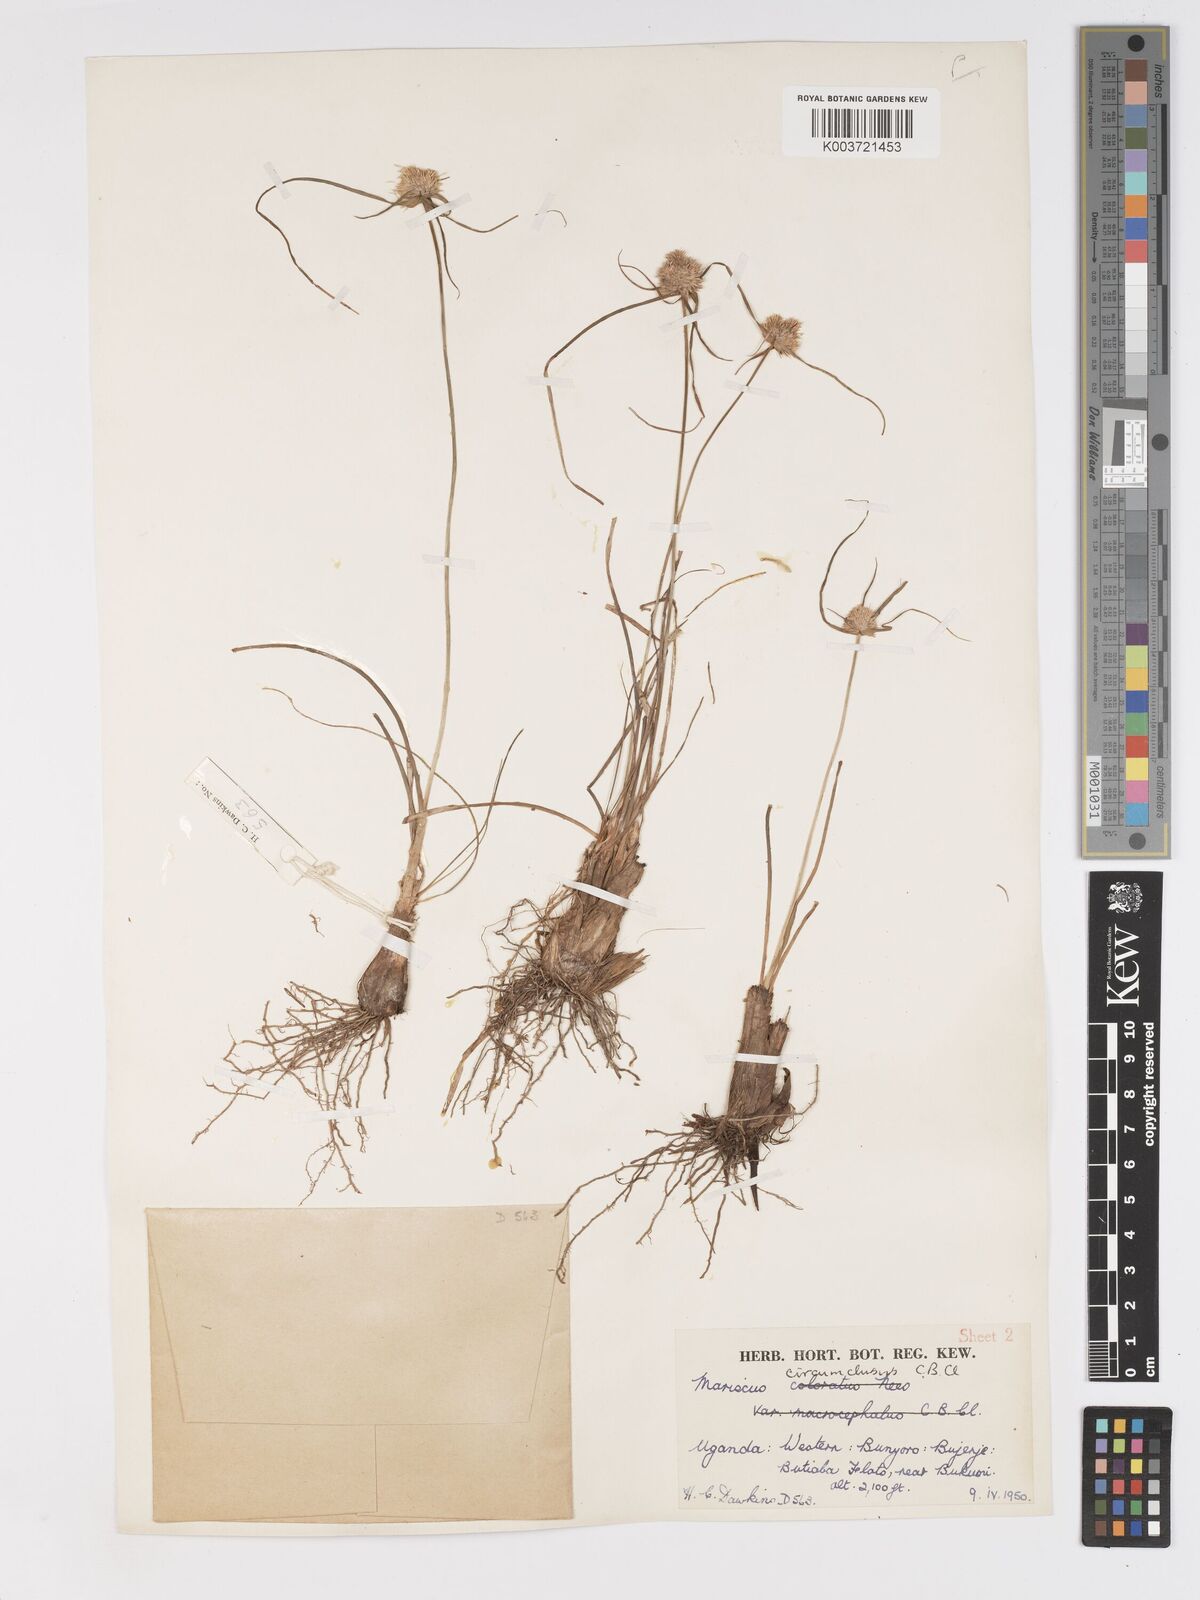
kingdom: Plantae
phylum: Tracheophyta
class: Liliopsida
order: Poales
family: Cyperaceae
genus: Cyperus
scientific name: Cyperus mollipes
